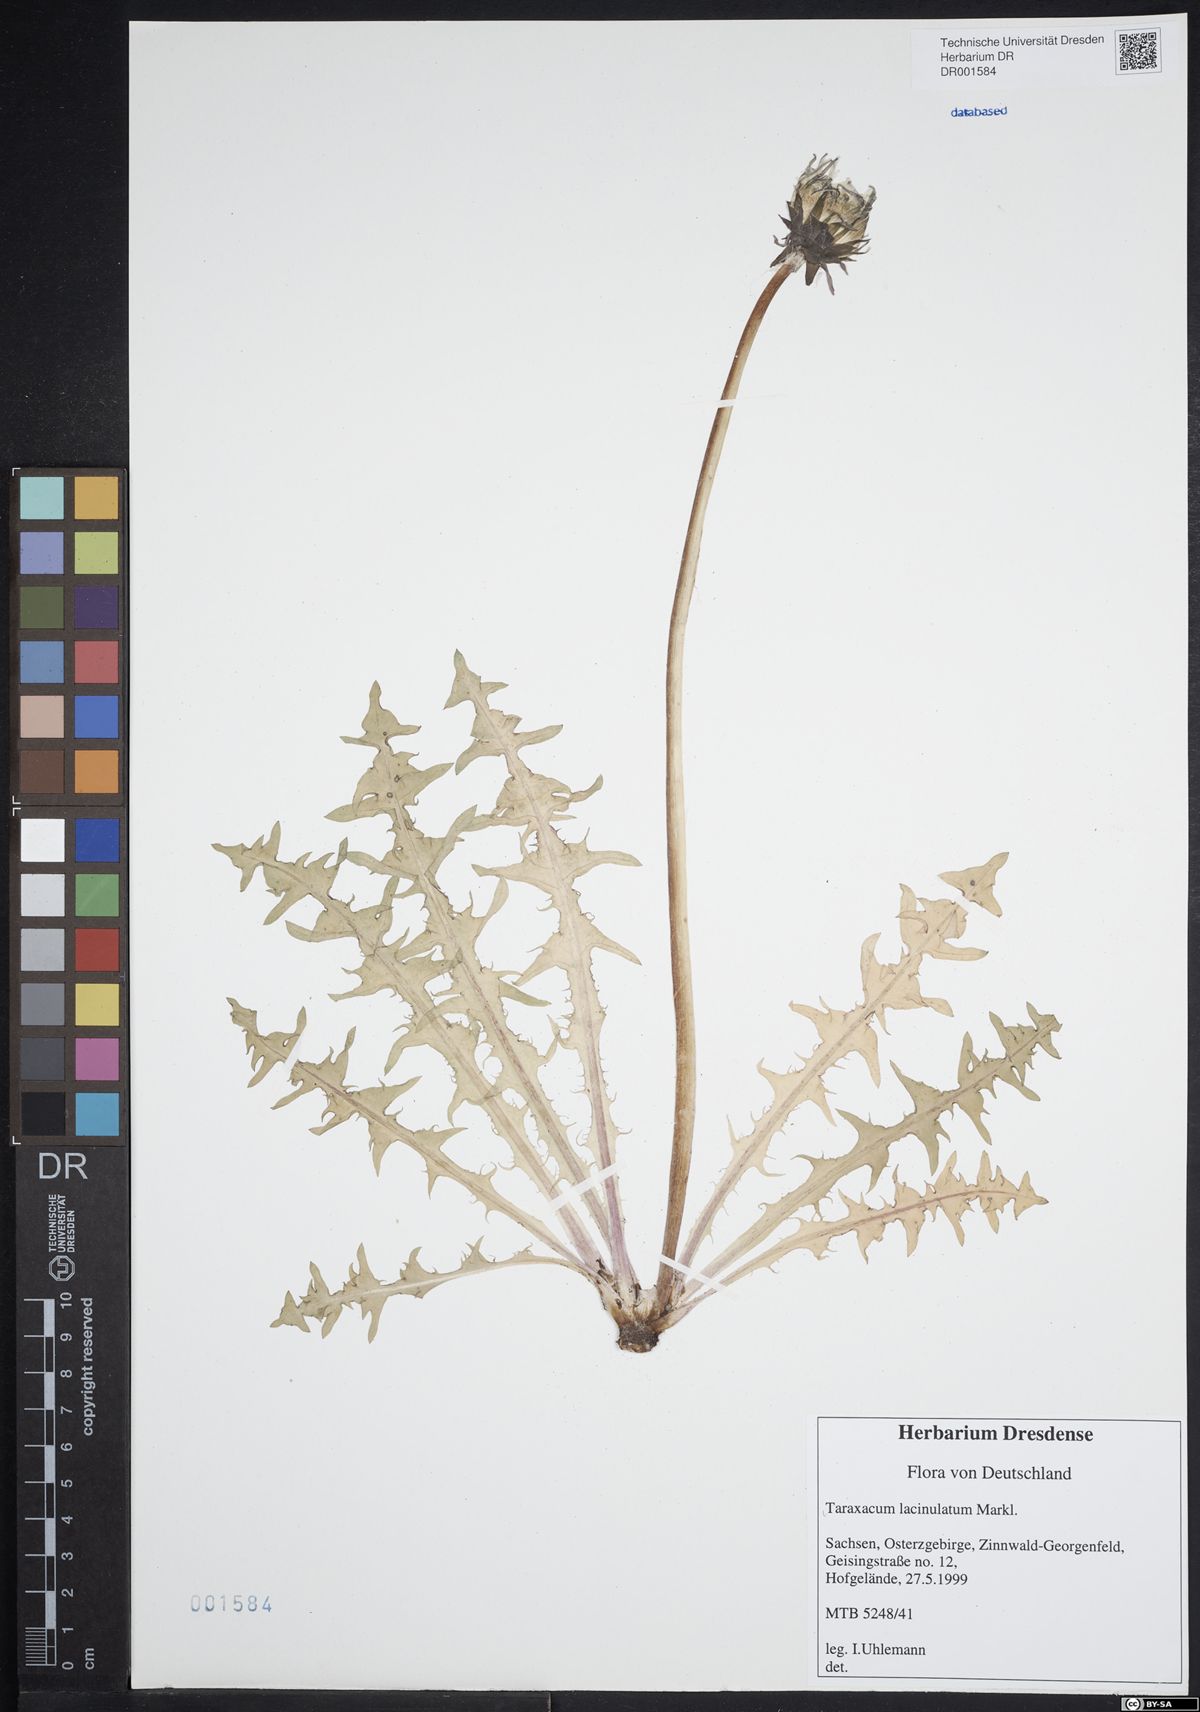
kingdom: Plantae
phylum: Tracheophyta
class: Magnoliopsida
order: Asterales
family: Asteraceae
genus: Taraxacum
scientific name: Taraxacum lacinulatum
